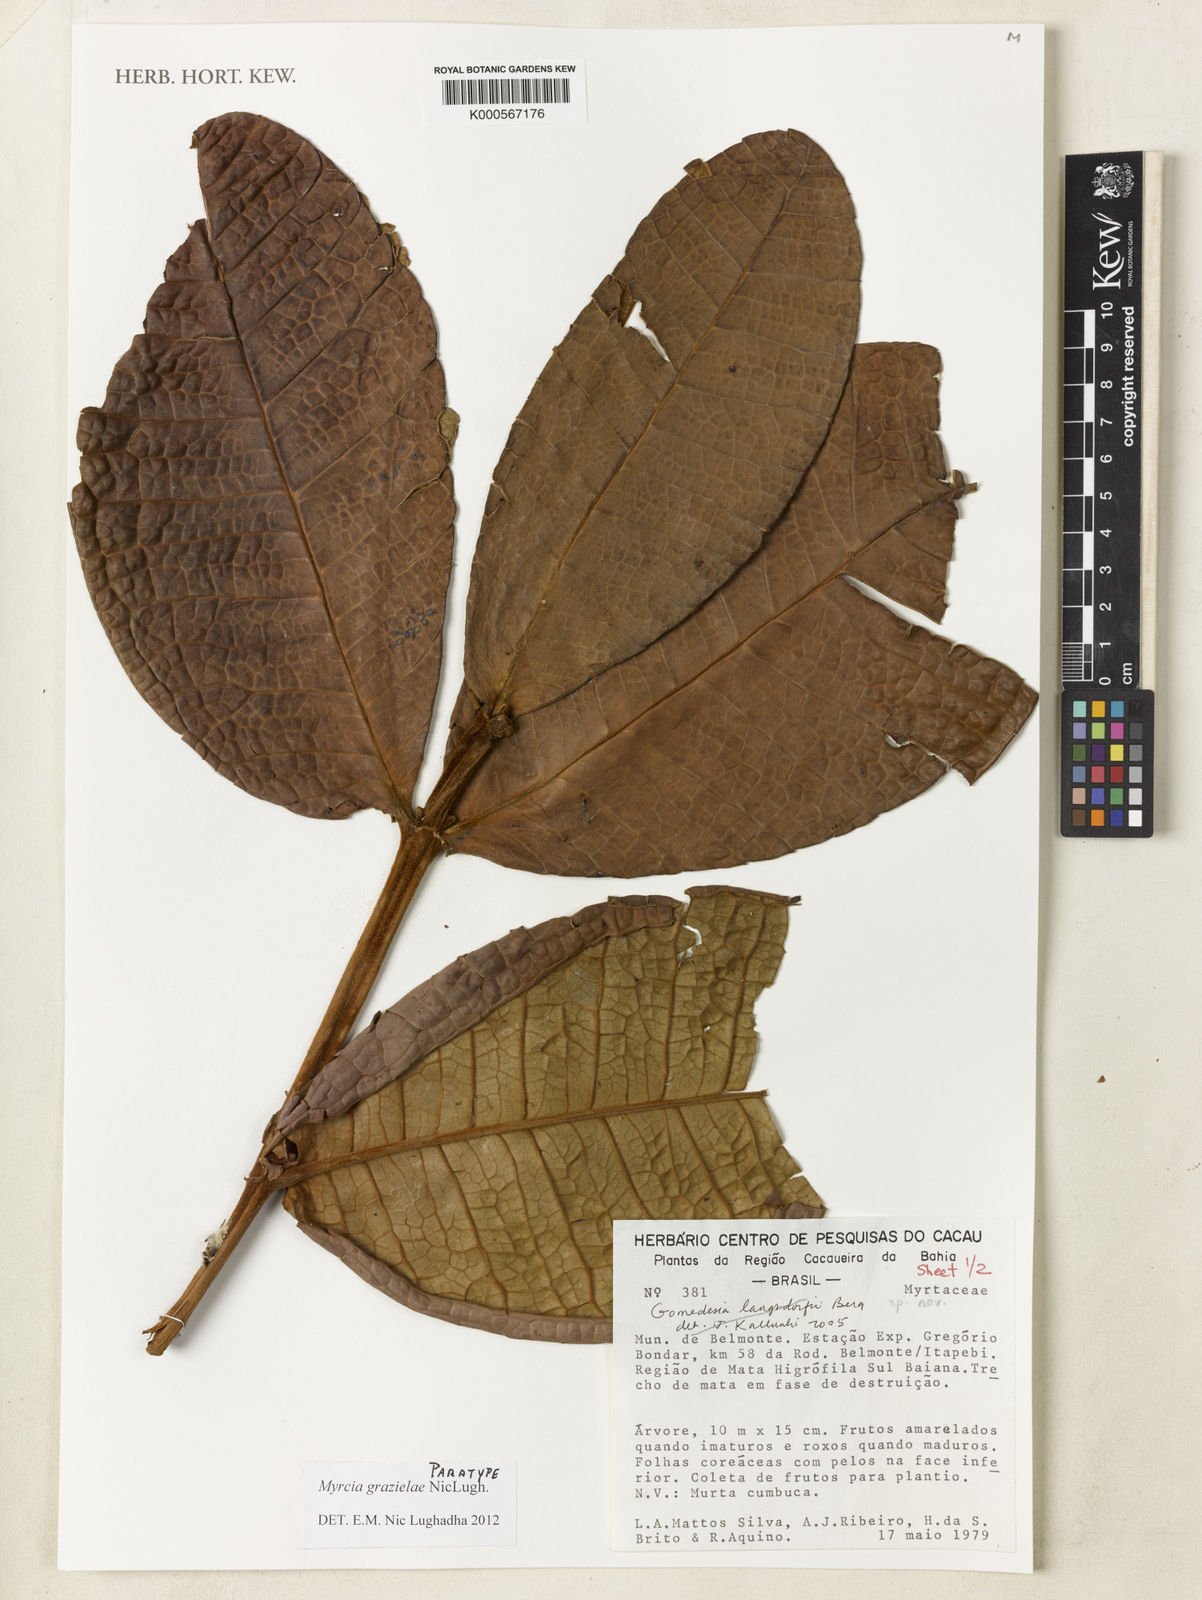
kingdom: Plantae
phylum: Tracheophyta
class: Magnoliopsida
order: Myrtales
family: Myrtaceae
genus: Myrcia
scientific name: Myrcia grazielae
